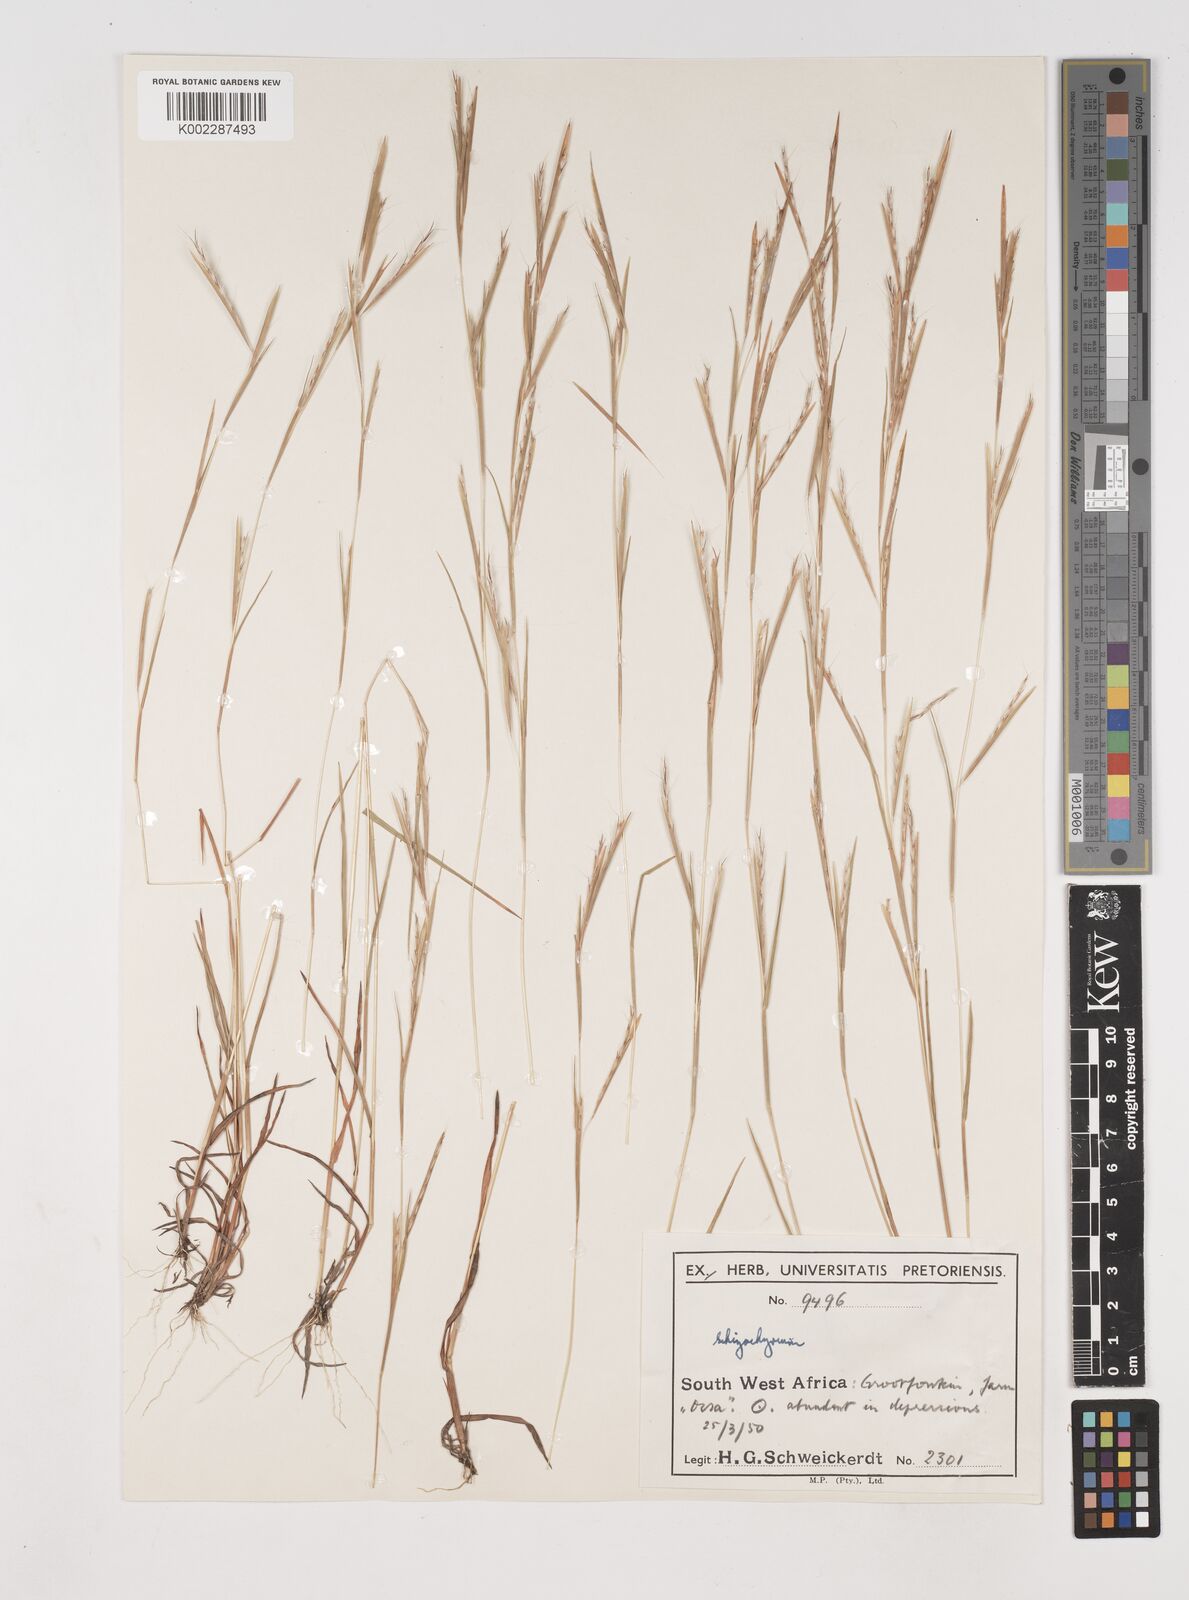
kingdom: Plantae
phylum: Tracheophyta
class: Liliopsida
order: Poales
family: Poaceae
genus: Schizachyrium
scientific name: Schizachyrium exile
